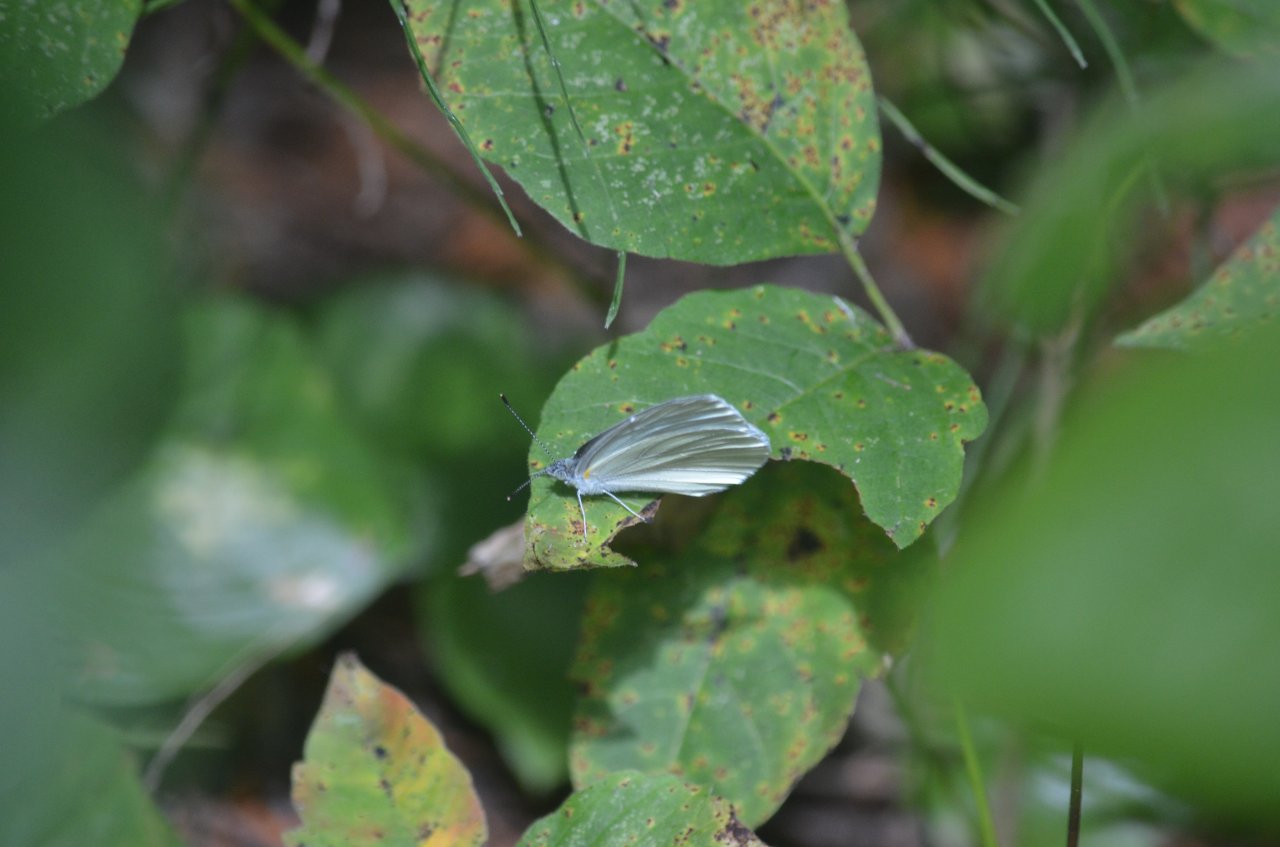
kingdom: Animalia
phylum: Arthropoda
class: Insecta
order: Lepidoptera
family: Pieridae
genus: Pieris
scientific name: Pieris oleracea
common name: Mustard White
